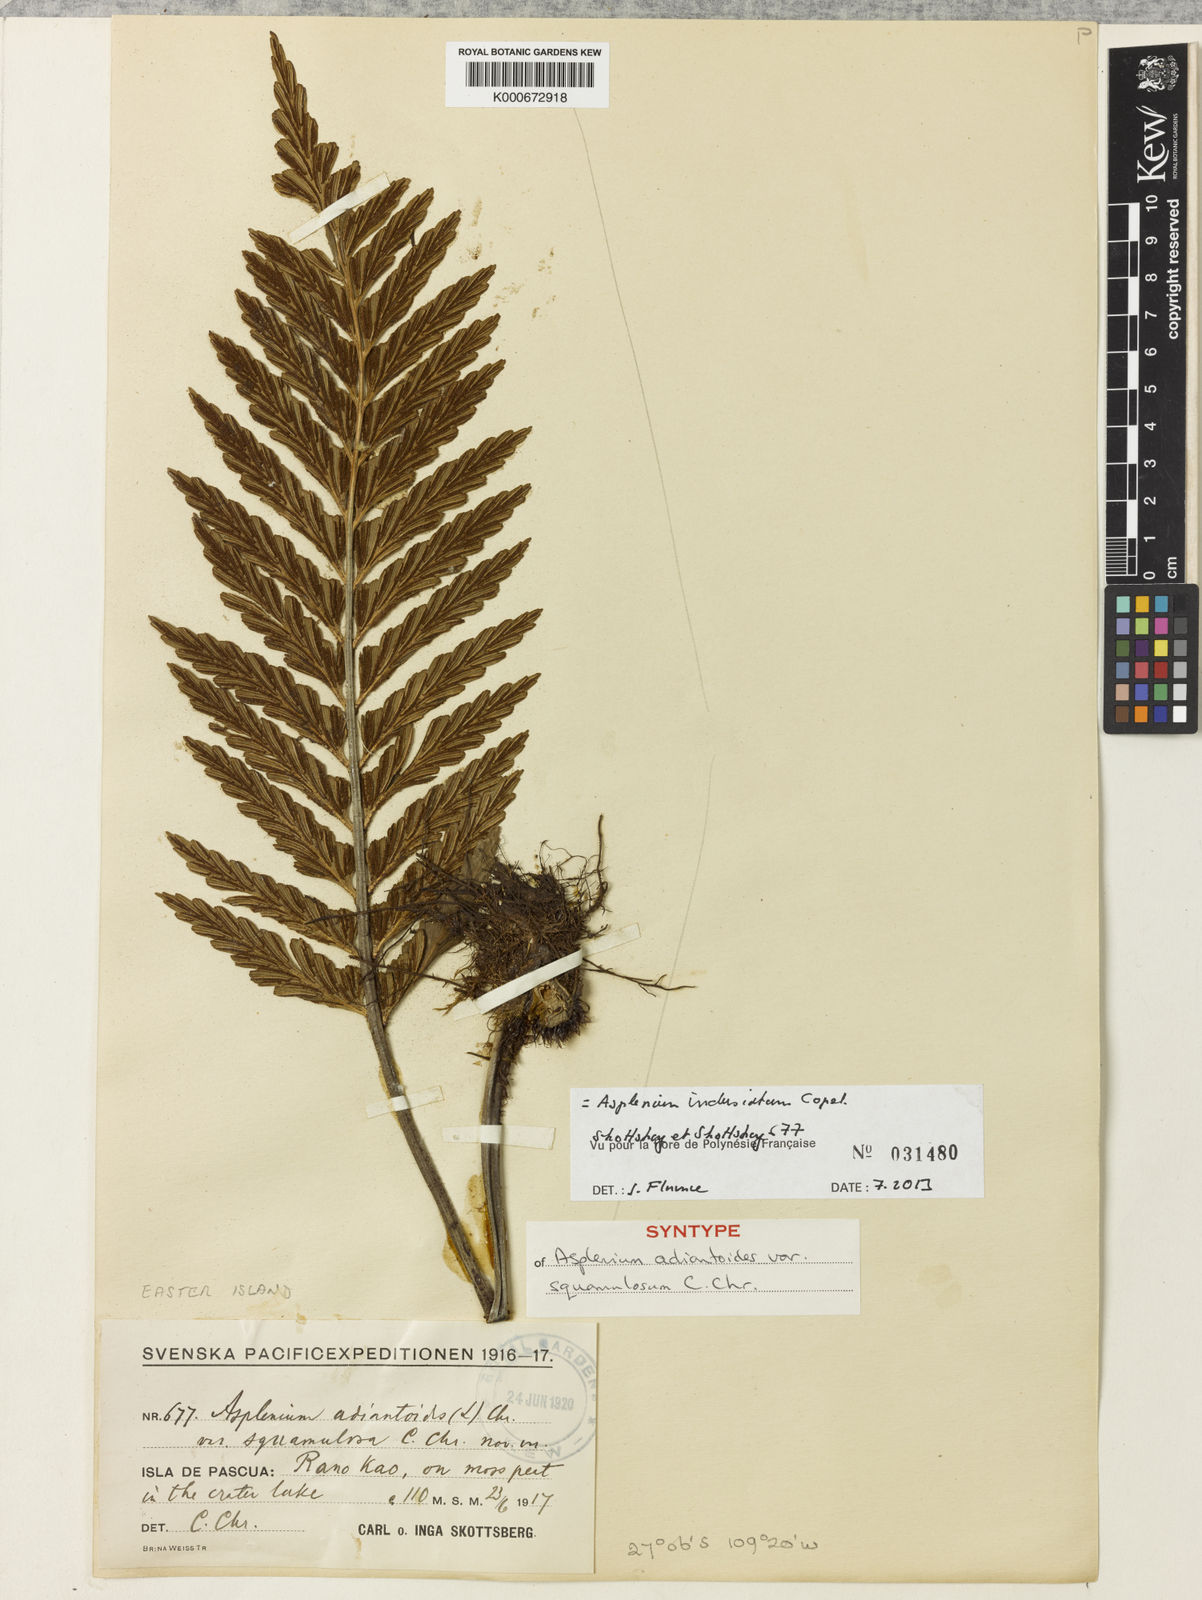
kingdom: Plantae
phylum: Tracheophyta
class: Polypodiopsida
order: Polypodiales
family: Aspleniaceae
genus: Asplenium
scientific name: Asplenium indusiatum
